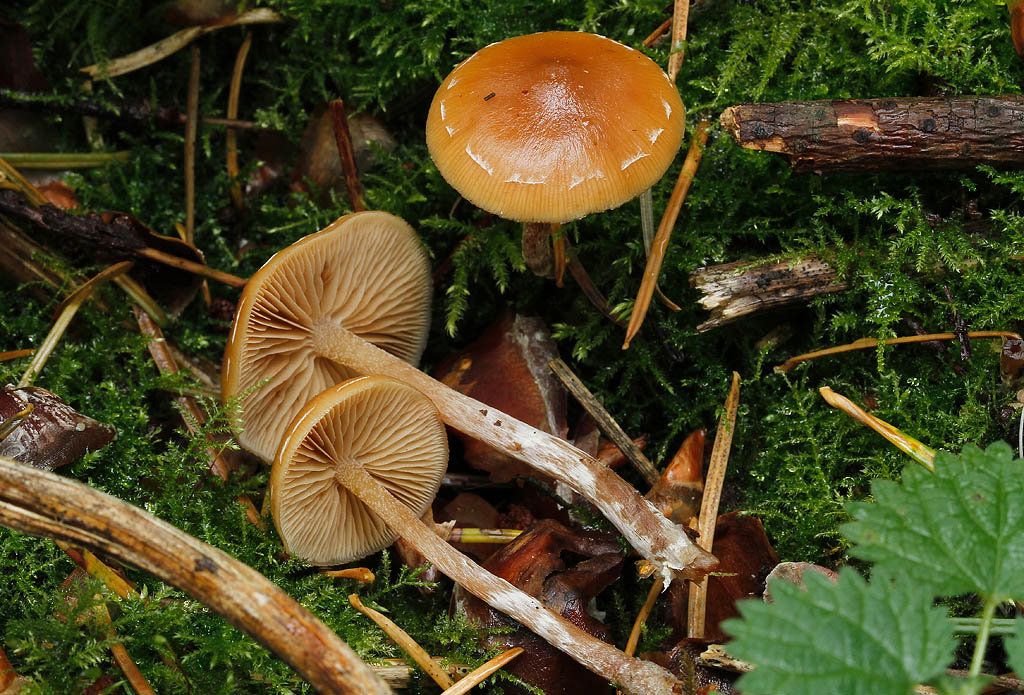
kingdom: Fungi
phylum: Basidiomycota
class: Agaricomycetes
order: Agaricales
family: Hymenogastraceae
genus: Galerina
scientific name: Galerina sideroides
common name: træflis-hjelmhat
